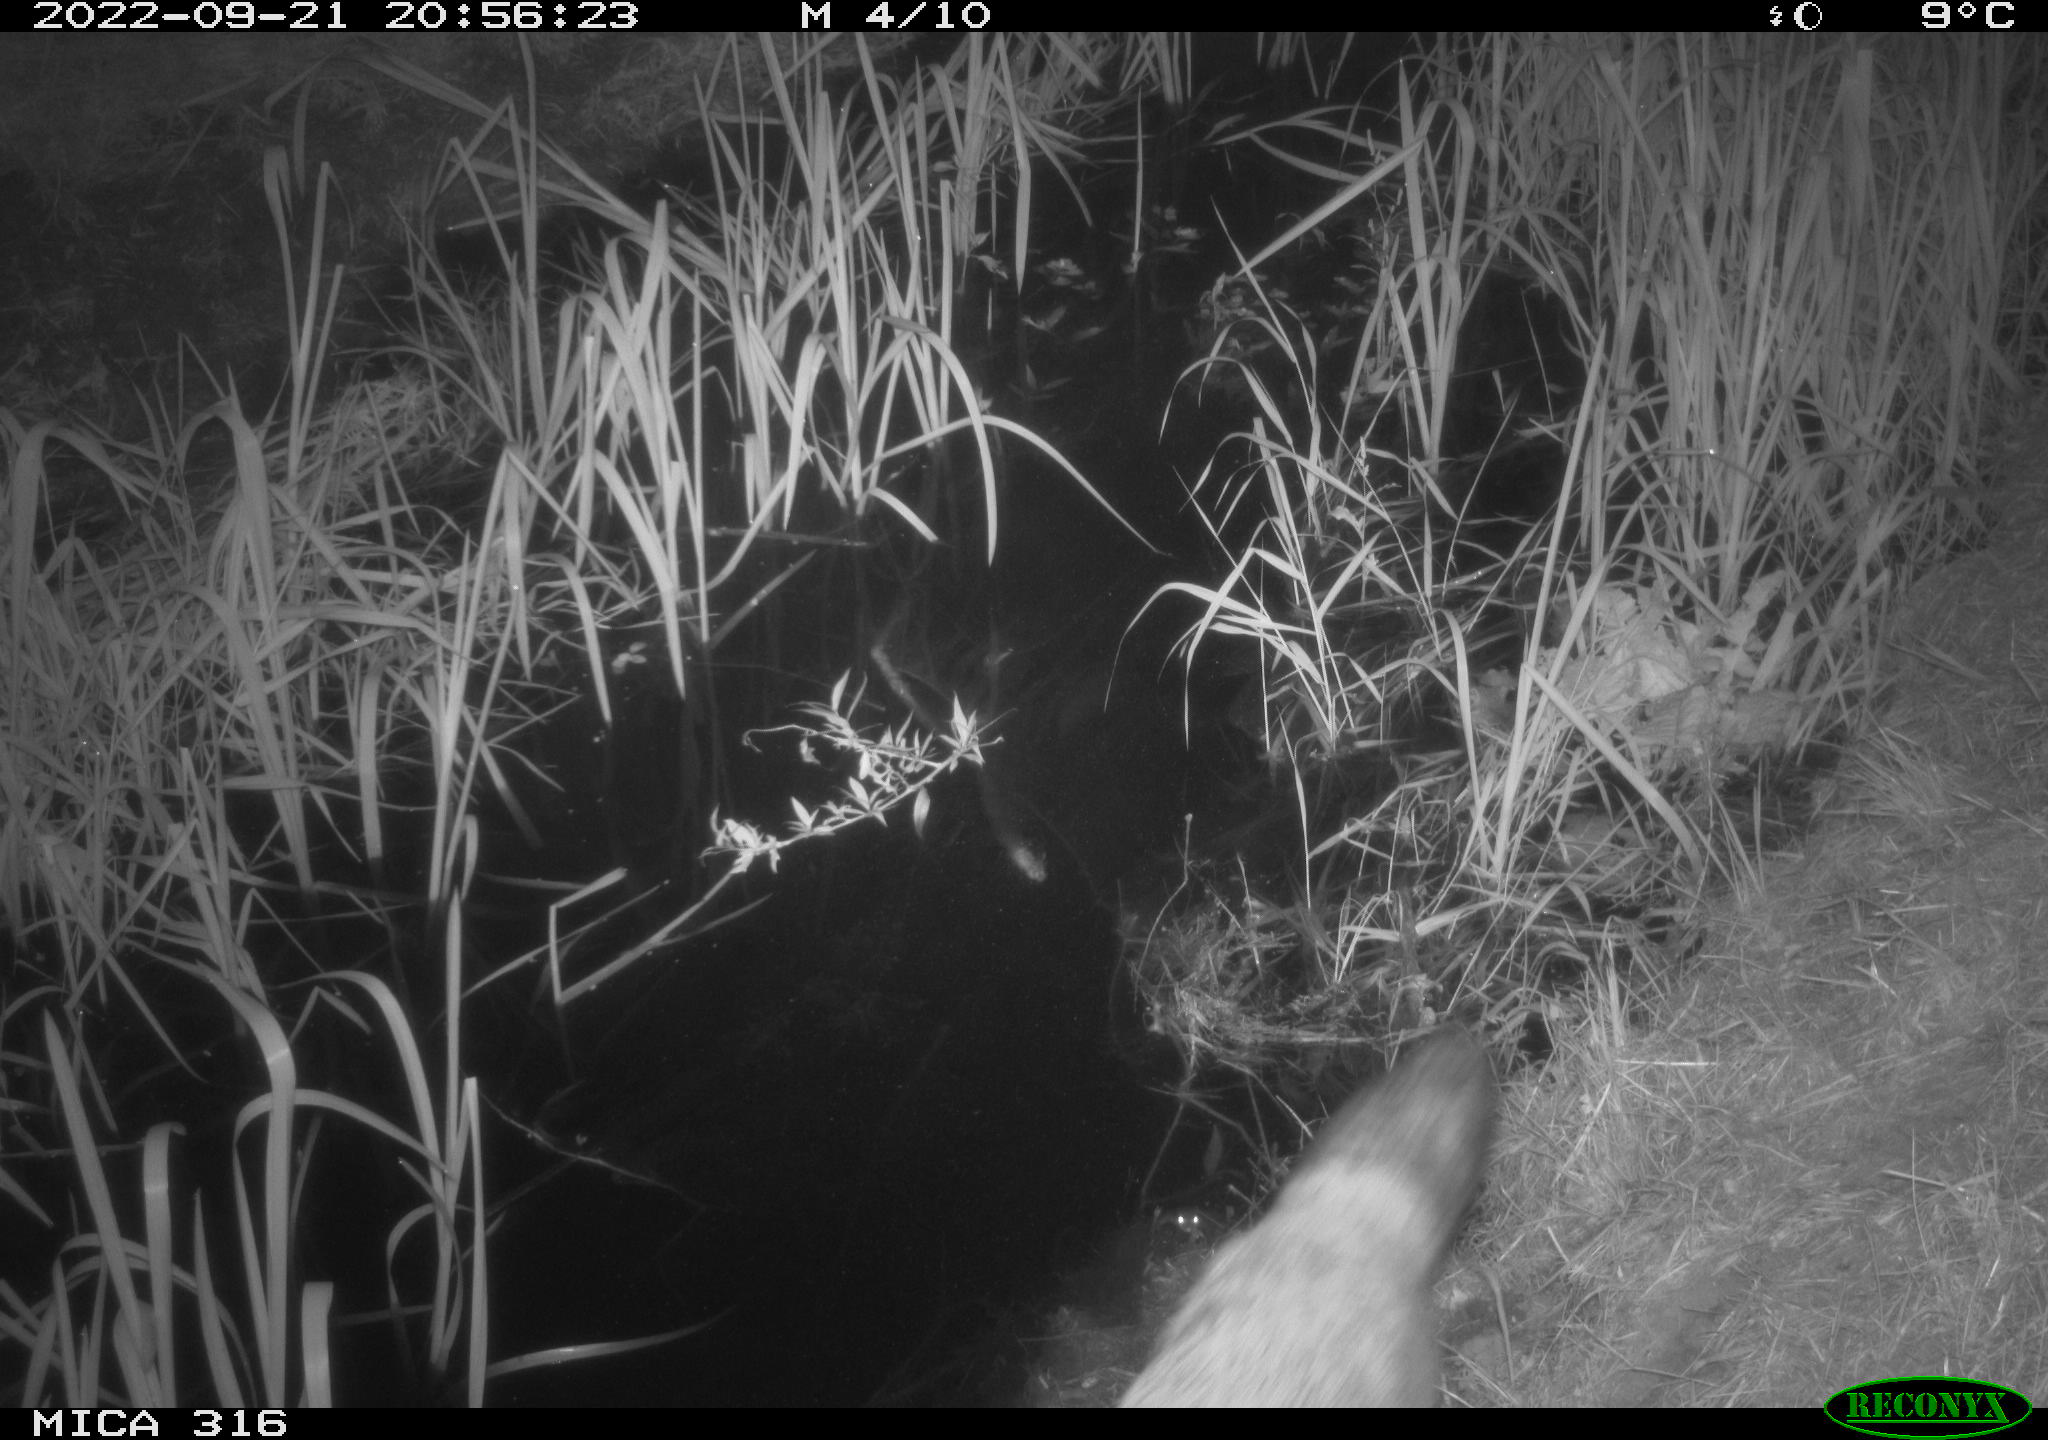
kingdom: Animalia
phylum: Chordata
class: Mammalia
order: Carnivora
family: Canidae
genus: Vulpes
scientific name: Vulpes vulpes
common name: Red fox
